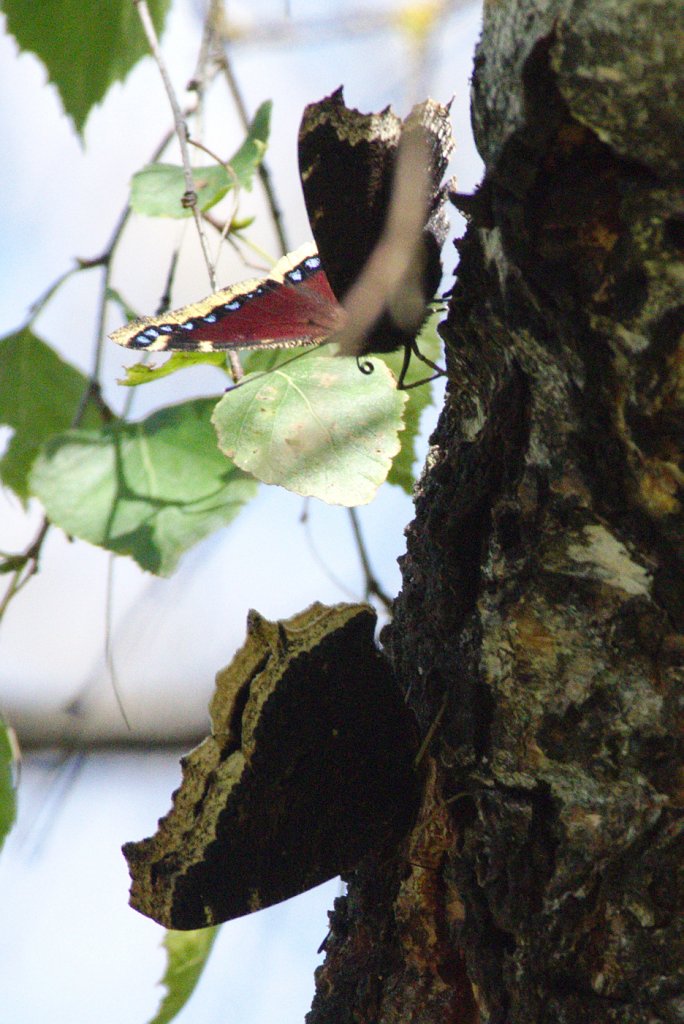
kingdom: Animalia
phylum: Arthropoda
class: Insecta
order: Lepidoptera
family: Nymphalidae
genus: Nymphalis
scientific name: Nymphalis antiopa
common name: Mourning Cloak
